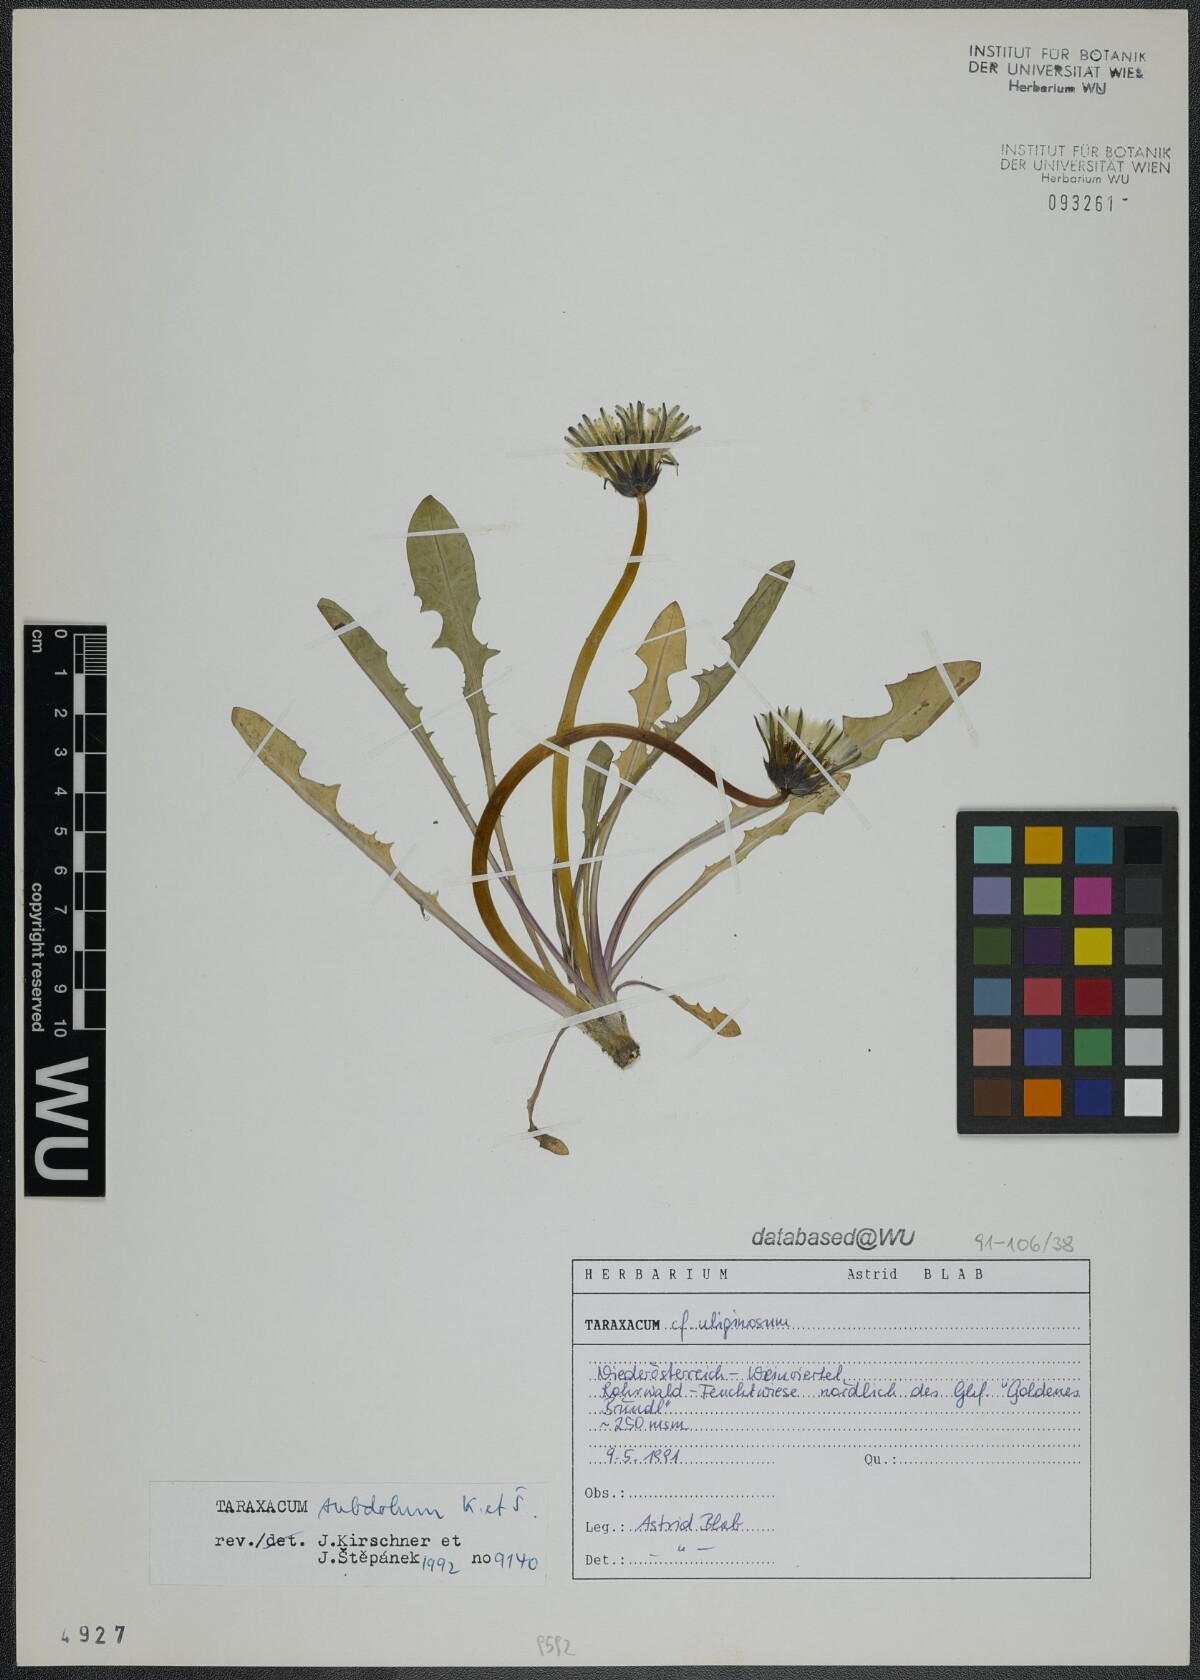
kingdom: Plantae
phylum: Tracheophyta
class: Magnoliopsida
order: Asterales
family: Asteraceae
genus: Taraxacum
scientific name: Taraxacum subdolum
